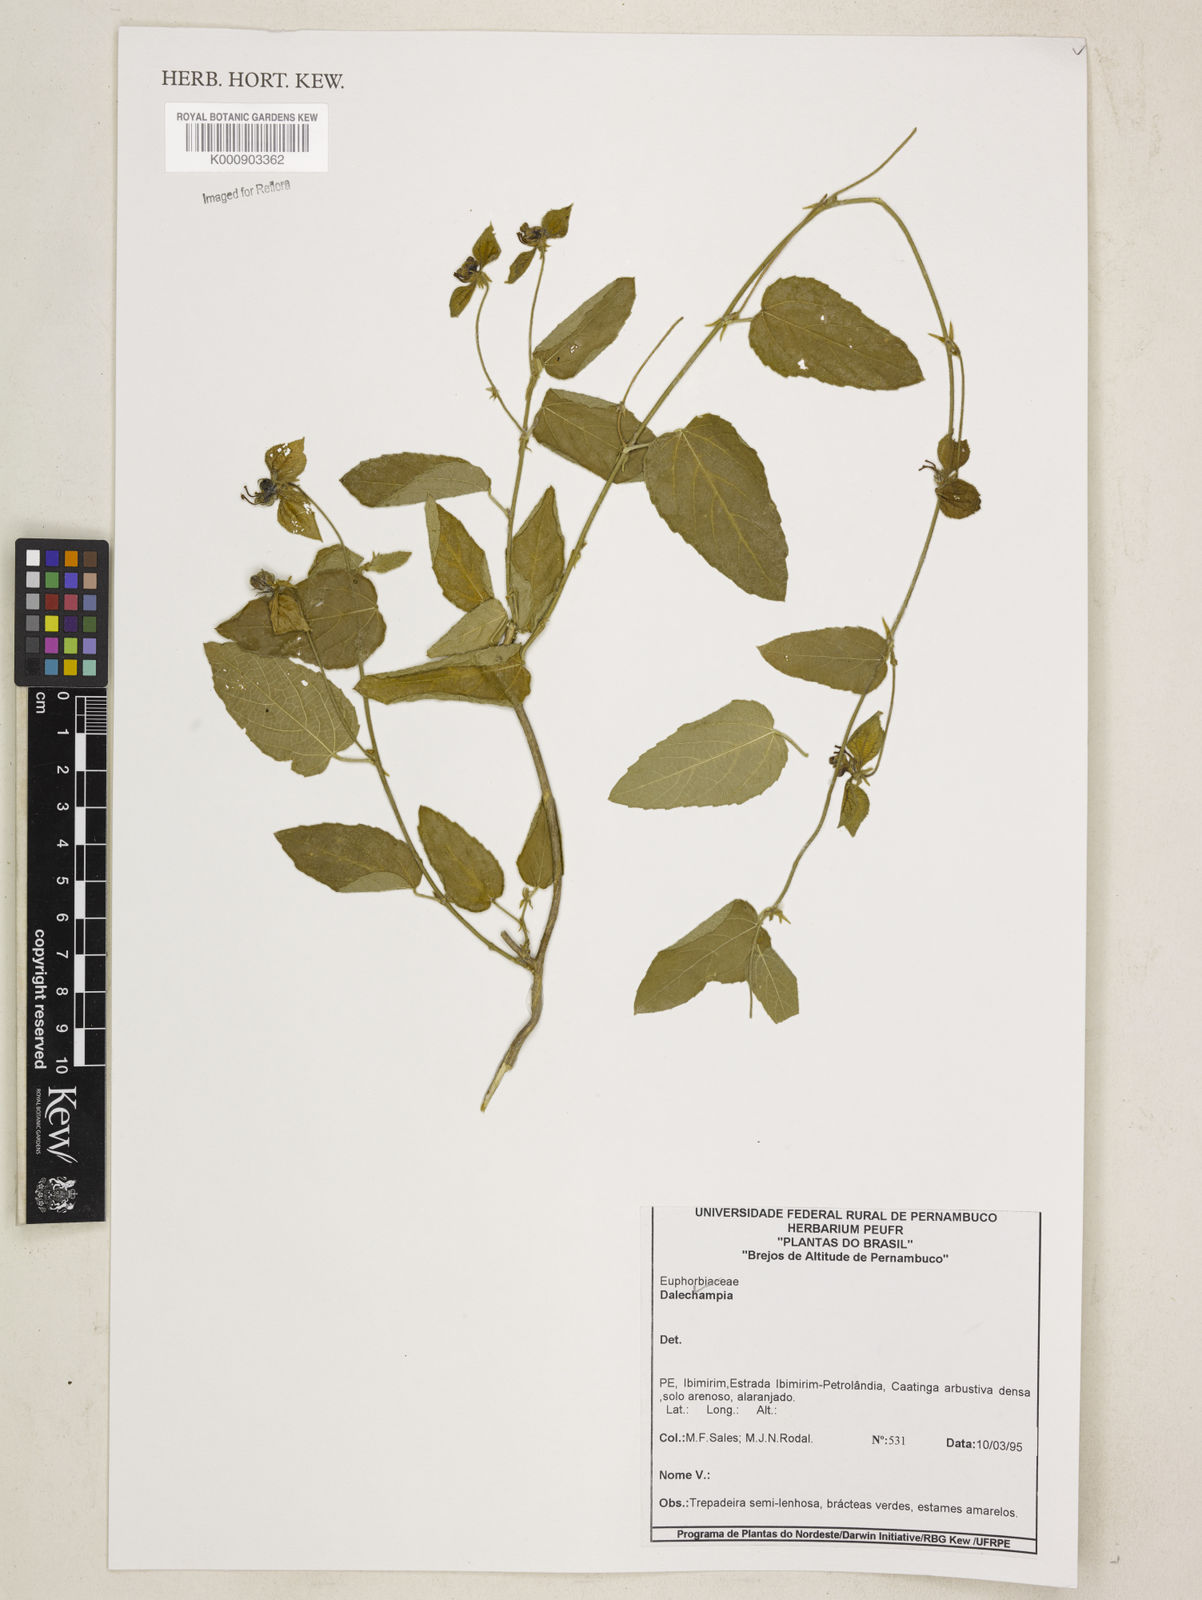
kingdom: Plantae
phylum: Tracheophyta
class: Magnoliopsida
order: Malpighiales
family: Euphorbiaceae
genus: Dalechampia
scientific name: Dalechampia
